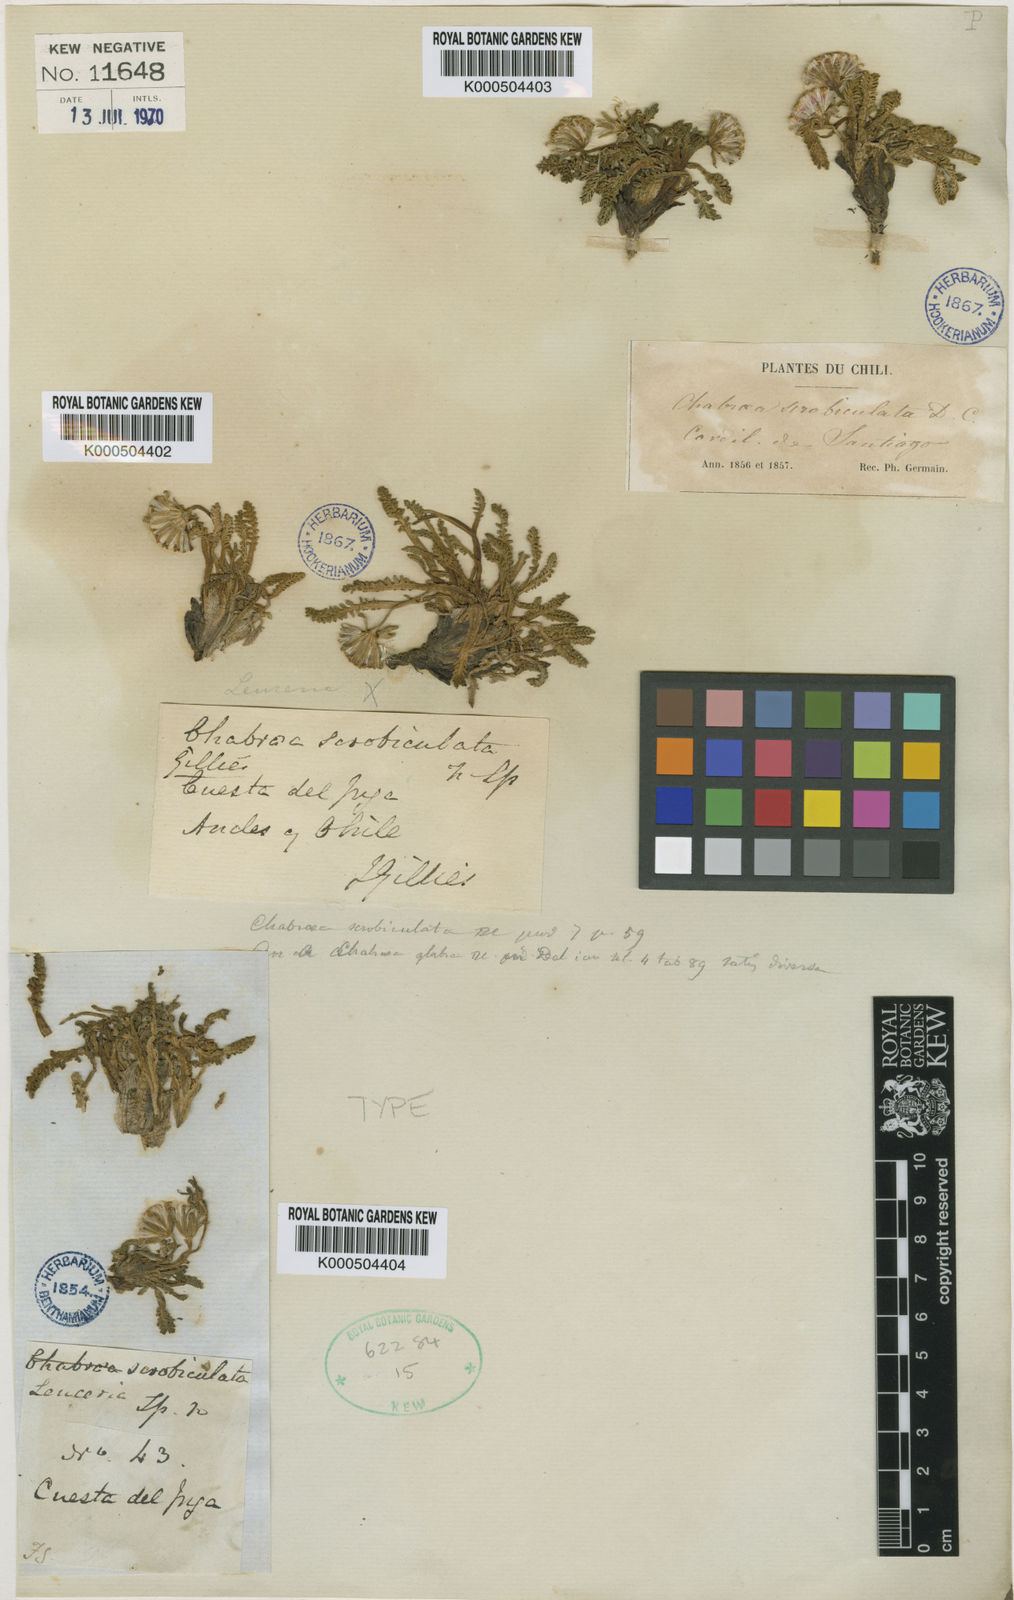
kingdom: Plantae
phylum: Tracheophyta
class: Magnoliopsida
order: Asterales
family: Asteraceae
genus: Leucheria
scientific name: Leucheria scrobiculata
